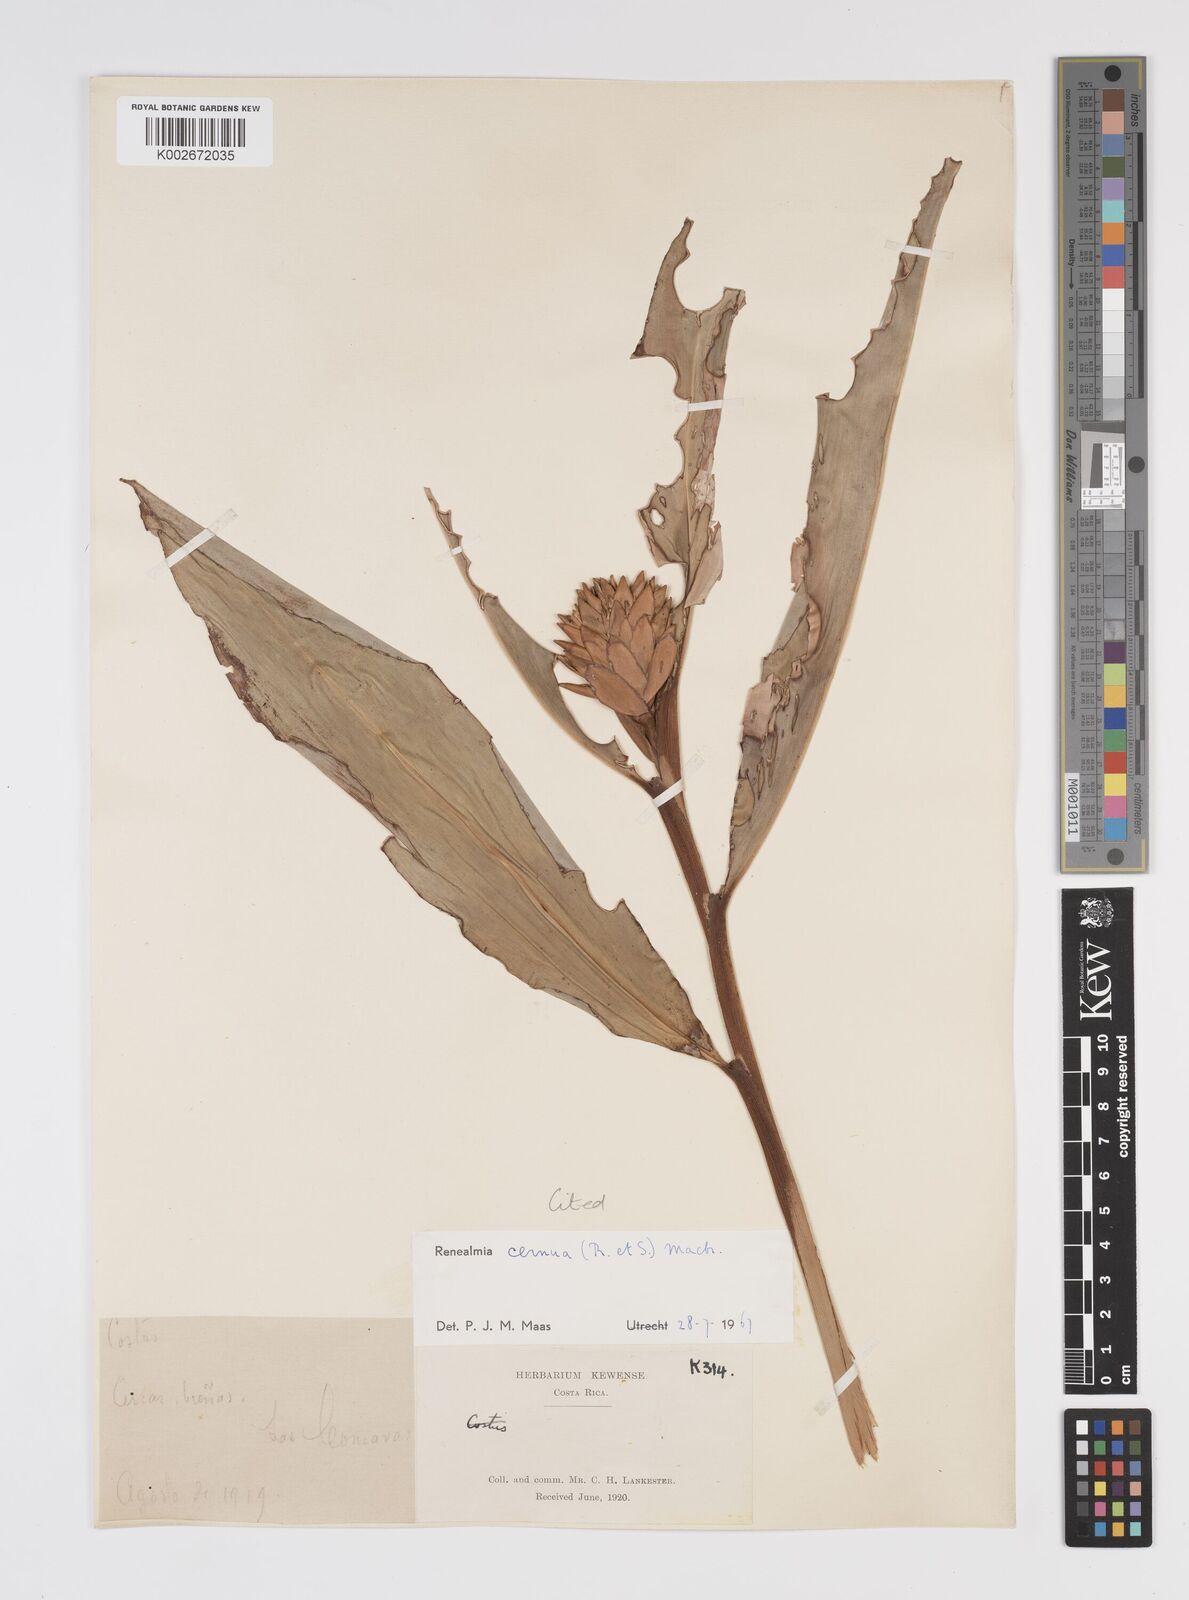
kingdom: Plantae
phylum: Tracheophyta
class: Liliopsida
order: Zingiberales
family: Zingiberaceae
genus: Renealmia
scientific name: Renealmia cernua
